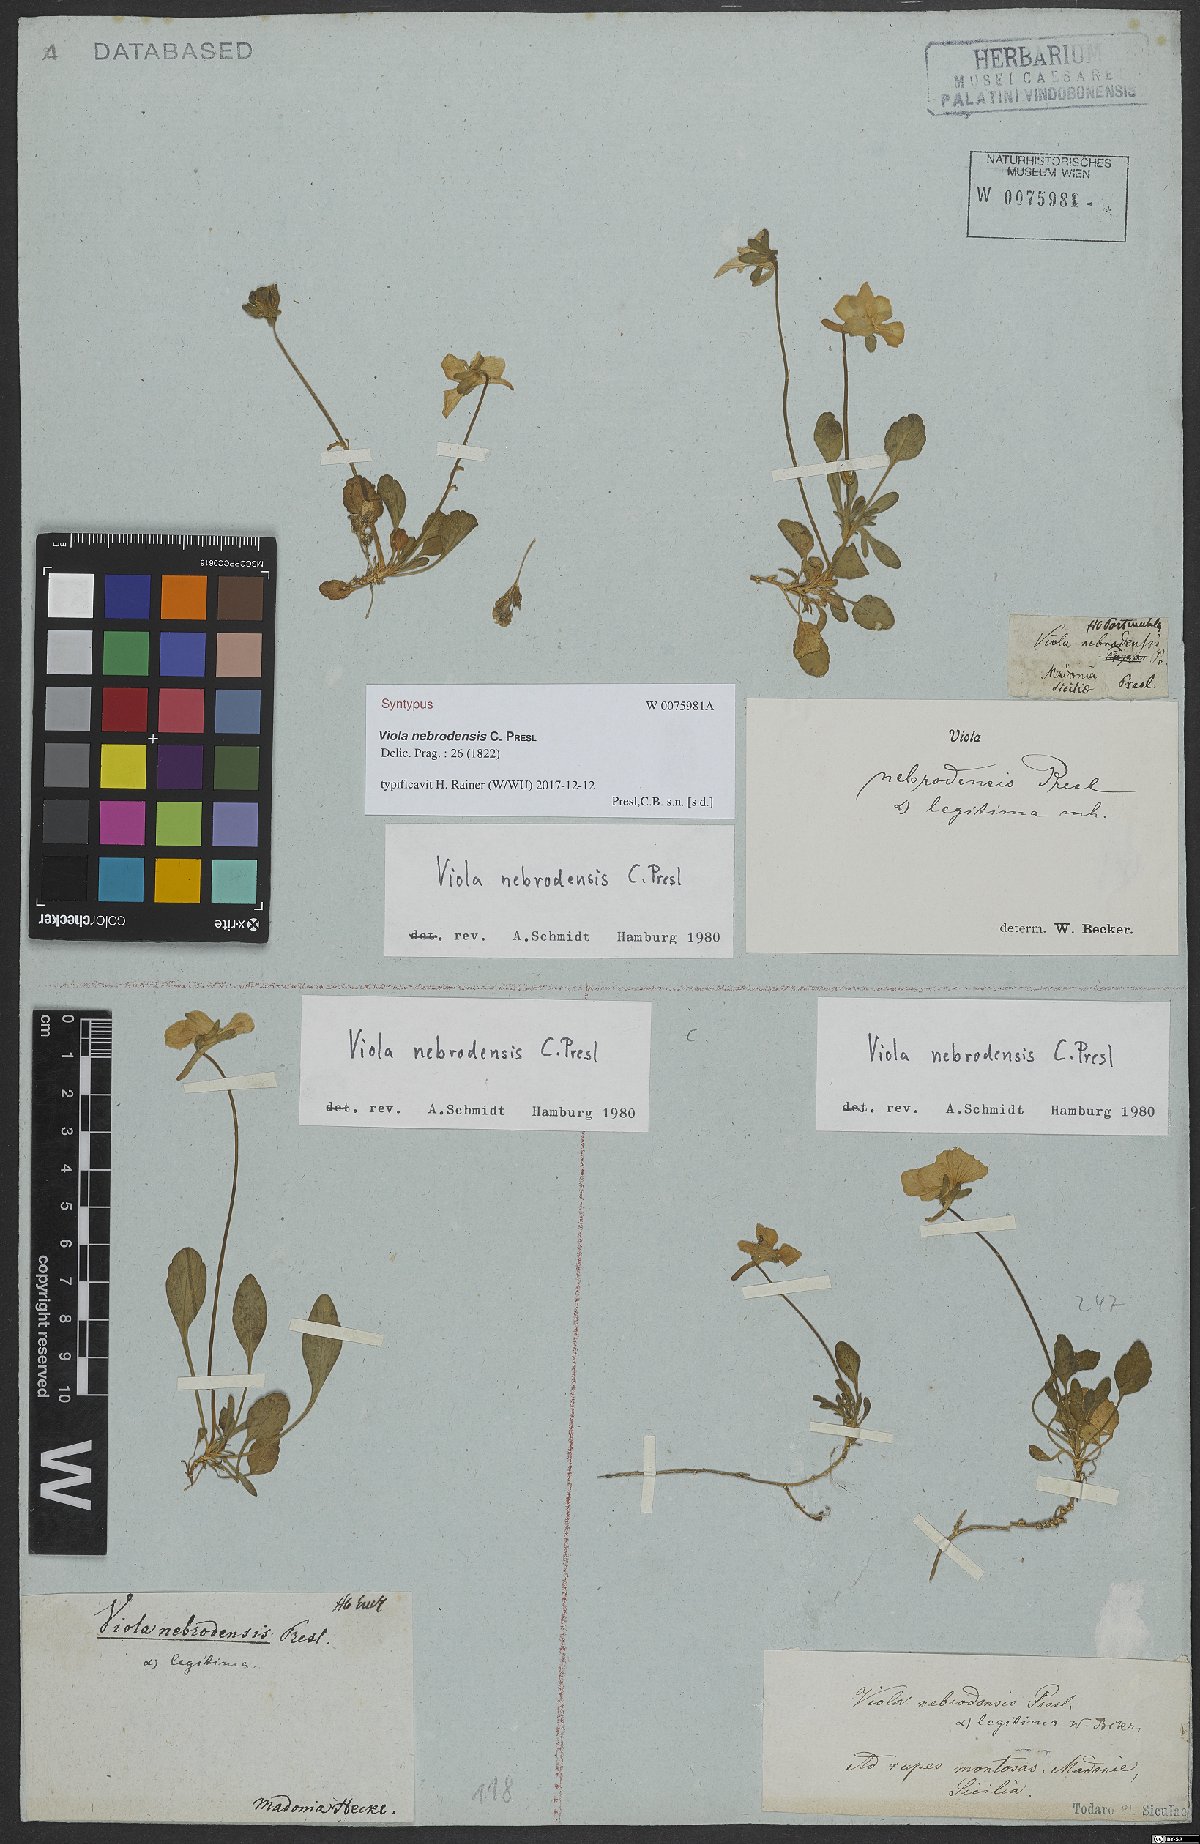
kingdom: Plantae
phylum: Tracheophyta
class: Magnoliopsida
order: Malpighiales
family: Violaceae
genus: Viola
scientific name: Viola nebrodensis
